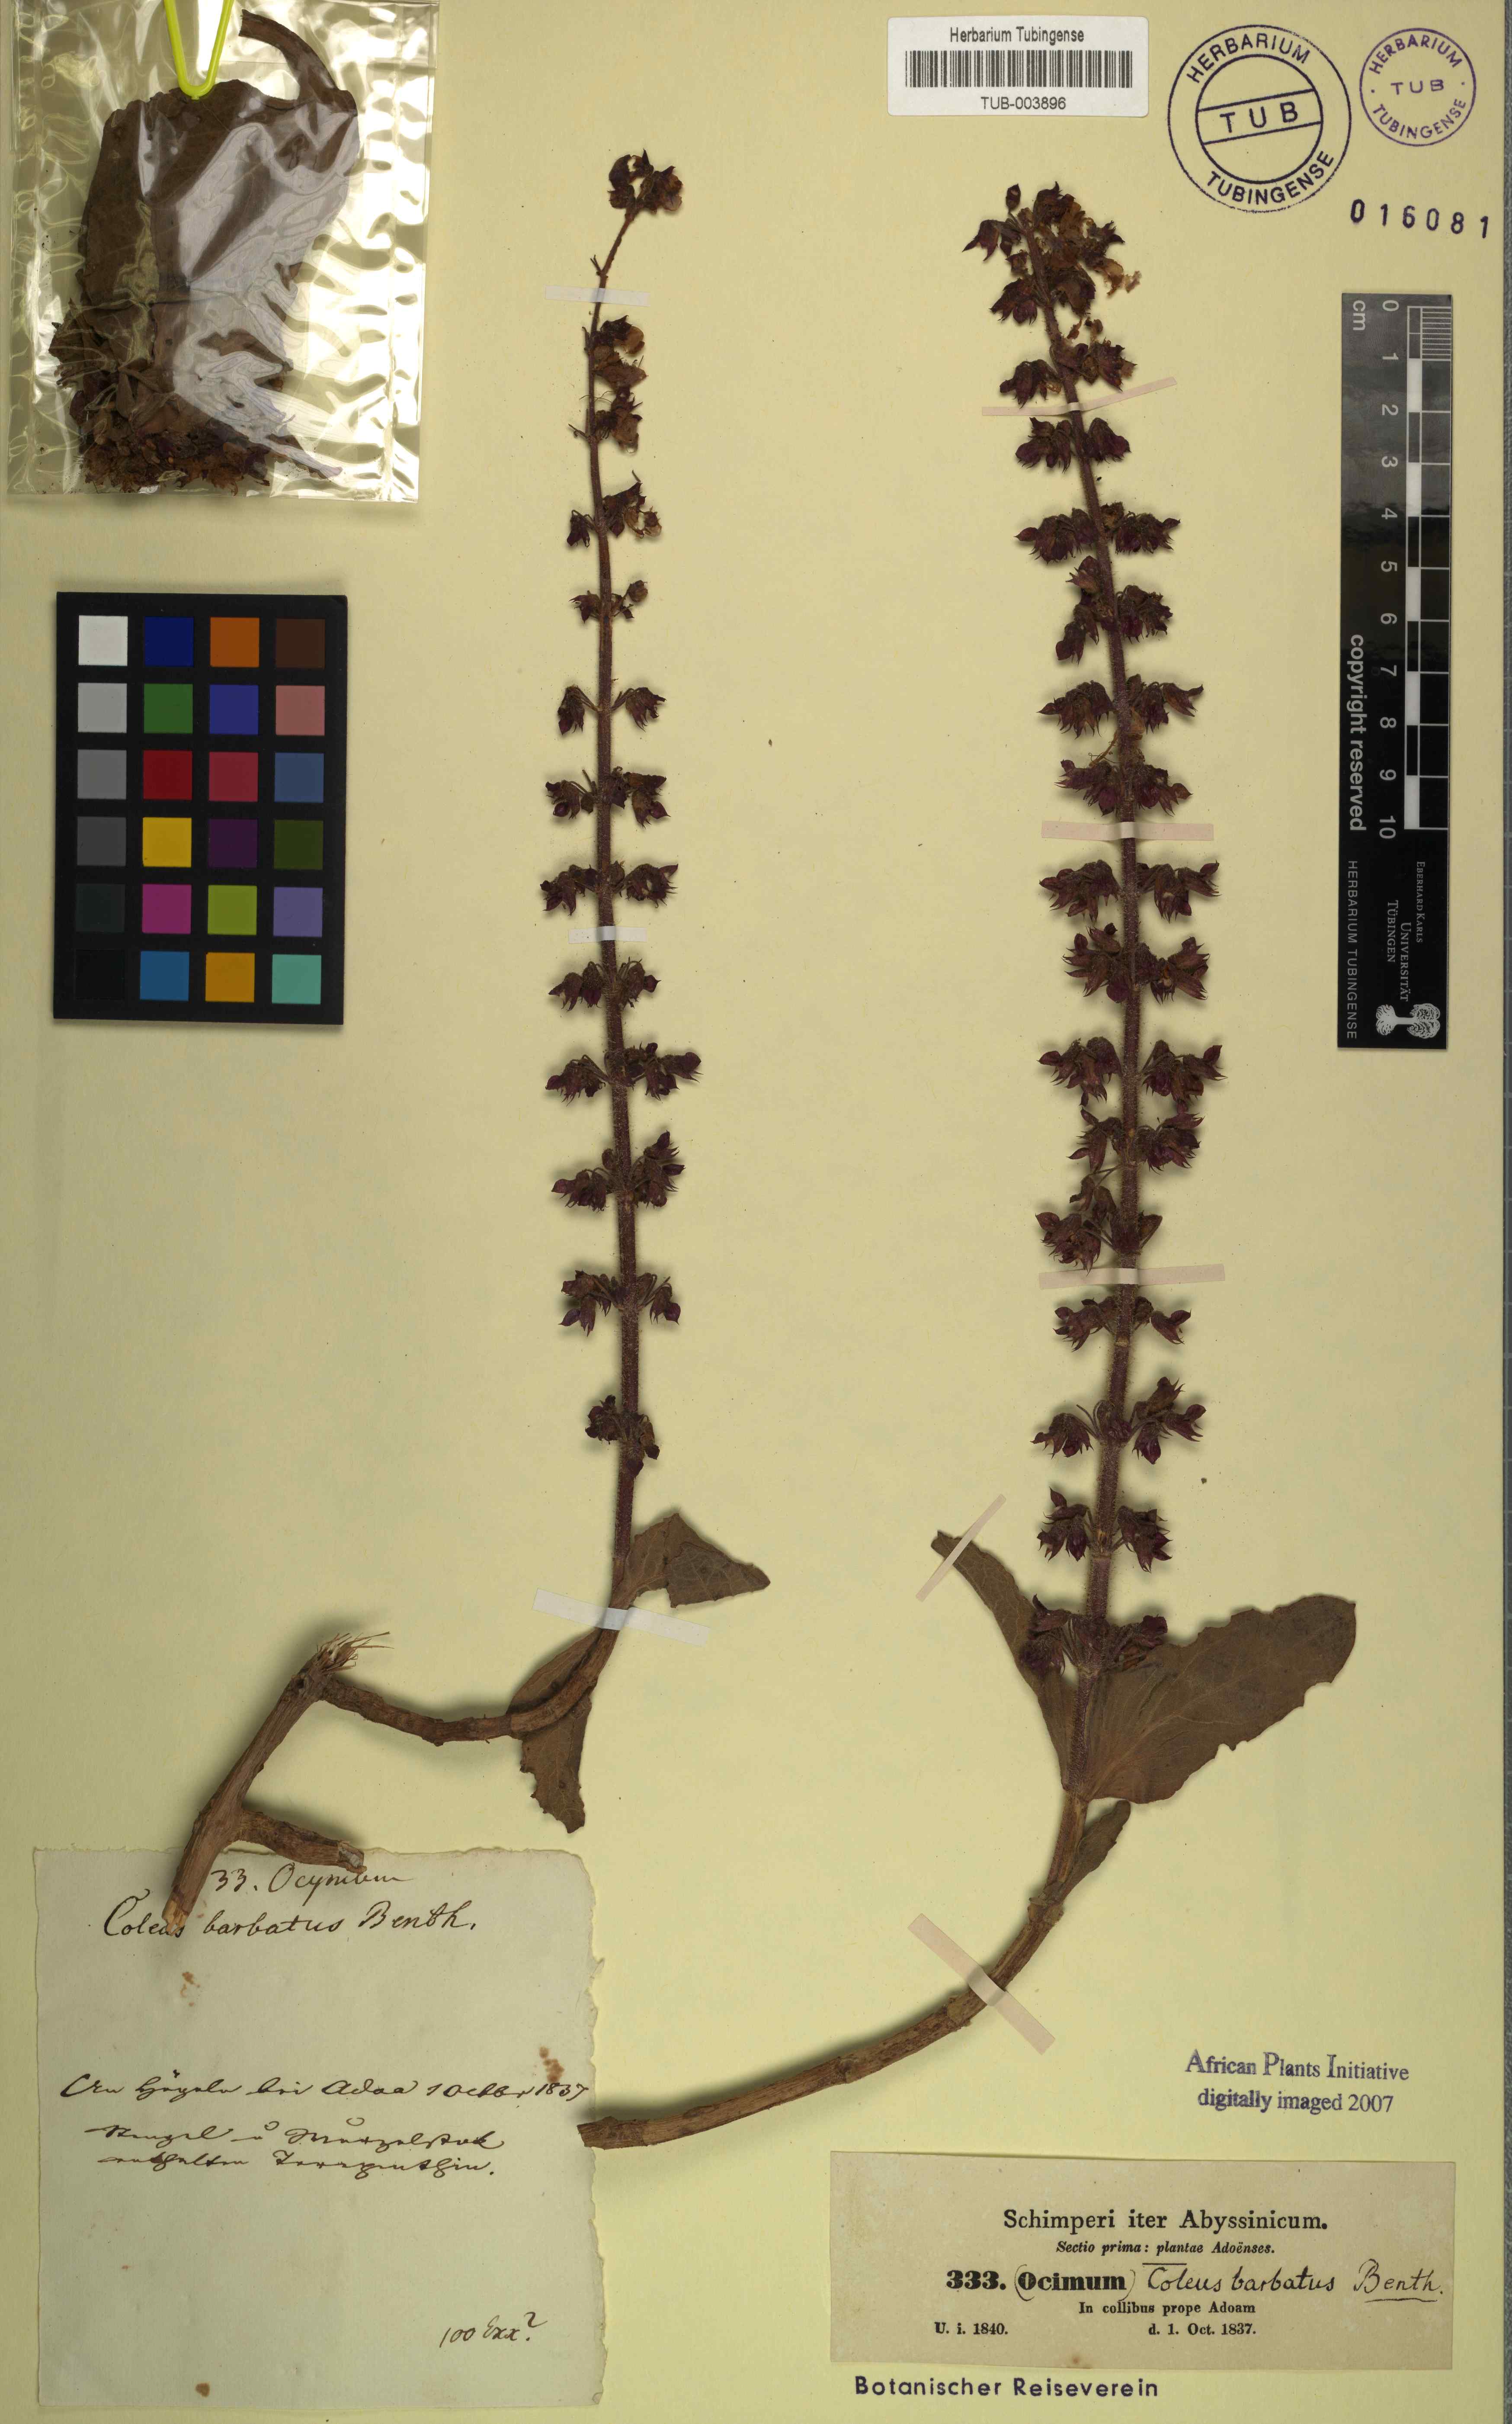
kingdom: Plantae
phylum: Tracheophyta
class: Magnoliopsida
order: Lamiales
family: Lamiaceae
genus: Coleus
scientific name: Coleus barbatus
